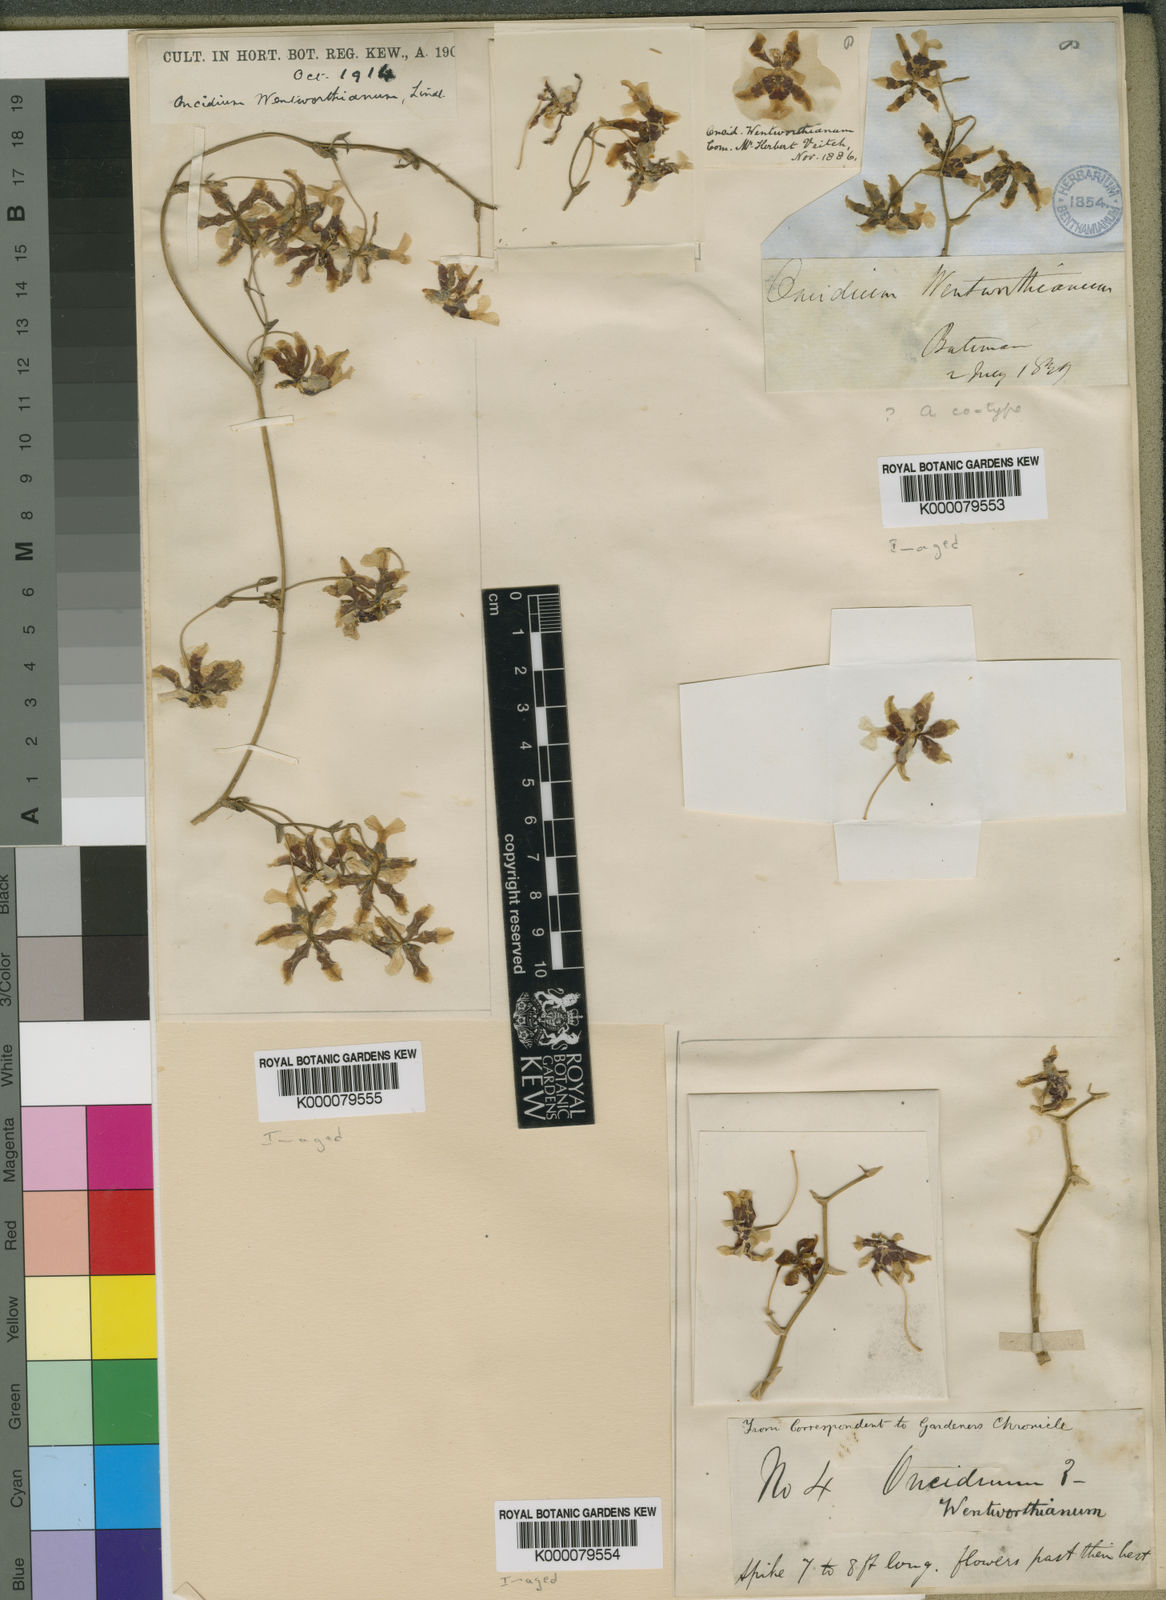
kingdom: Plantae
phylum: Tracheophyta
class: Liliopsida
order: Asparagales
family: Orchidaceae
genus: Oncidium
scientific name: Oncidium wentworthianum
